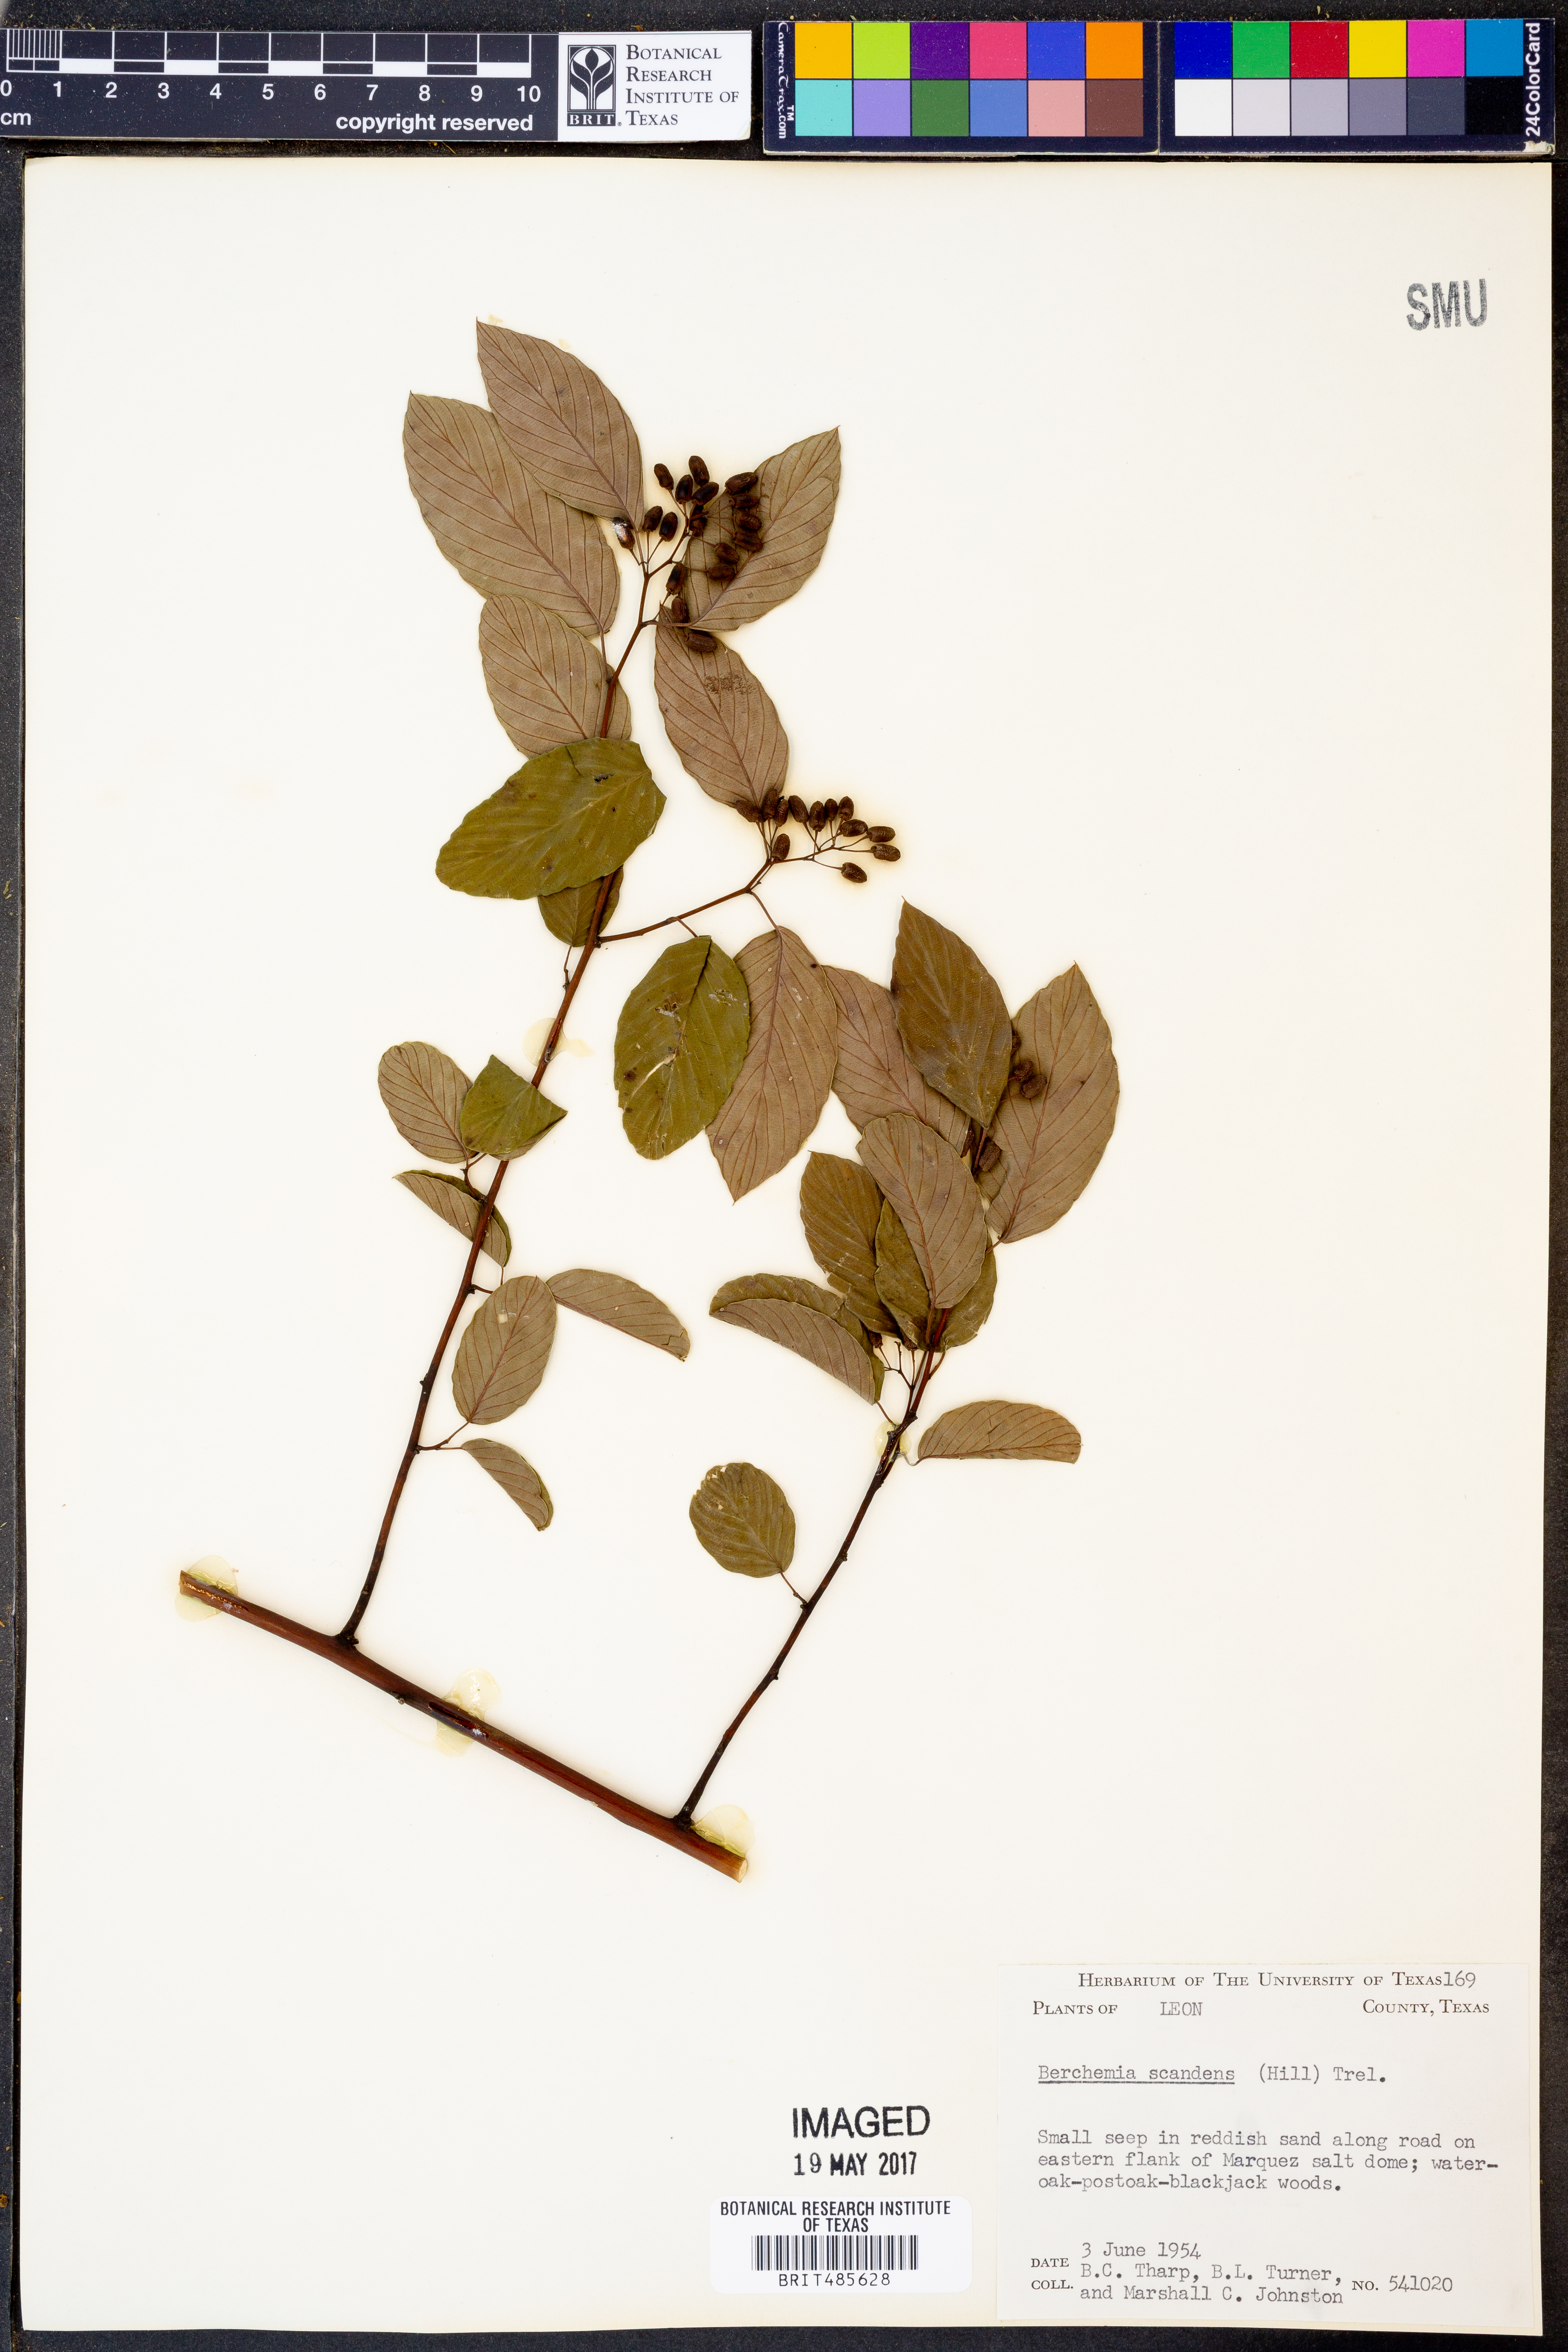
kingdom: Plantae
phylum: Tracheophyta
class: Magnoliopsida
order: Rosales
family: Rhamnaceae
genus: Berchemia
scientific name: Berchemia scandens
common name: Supplejack
